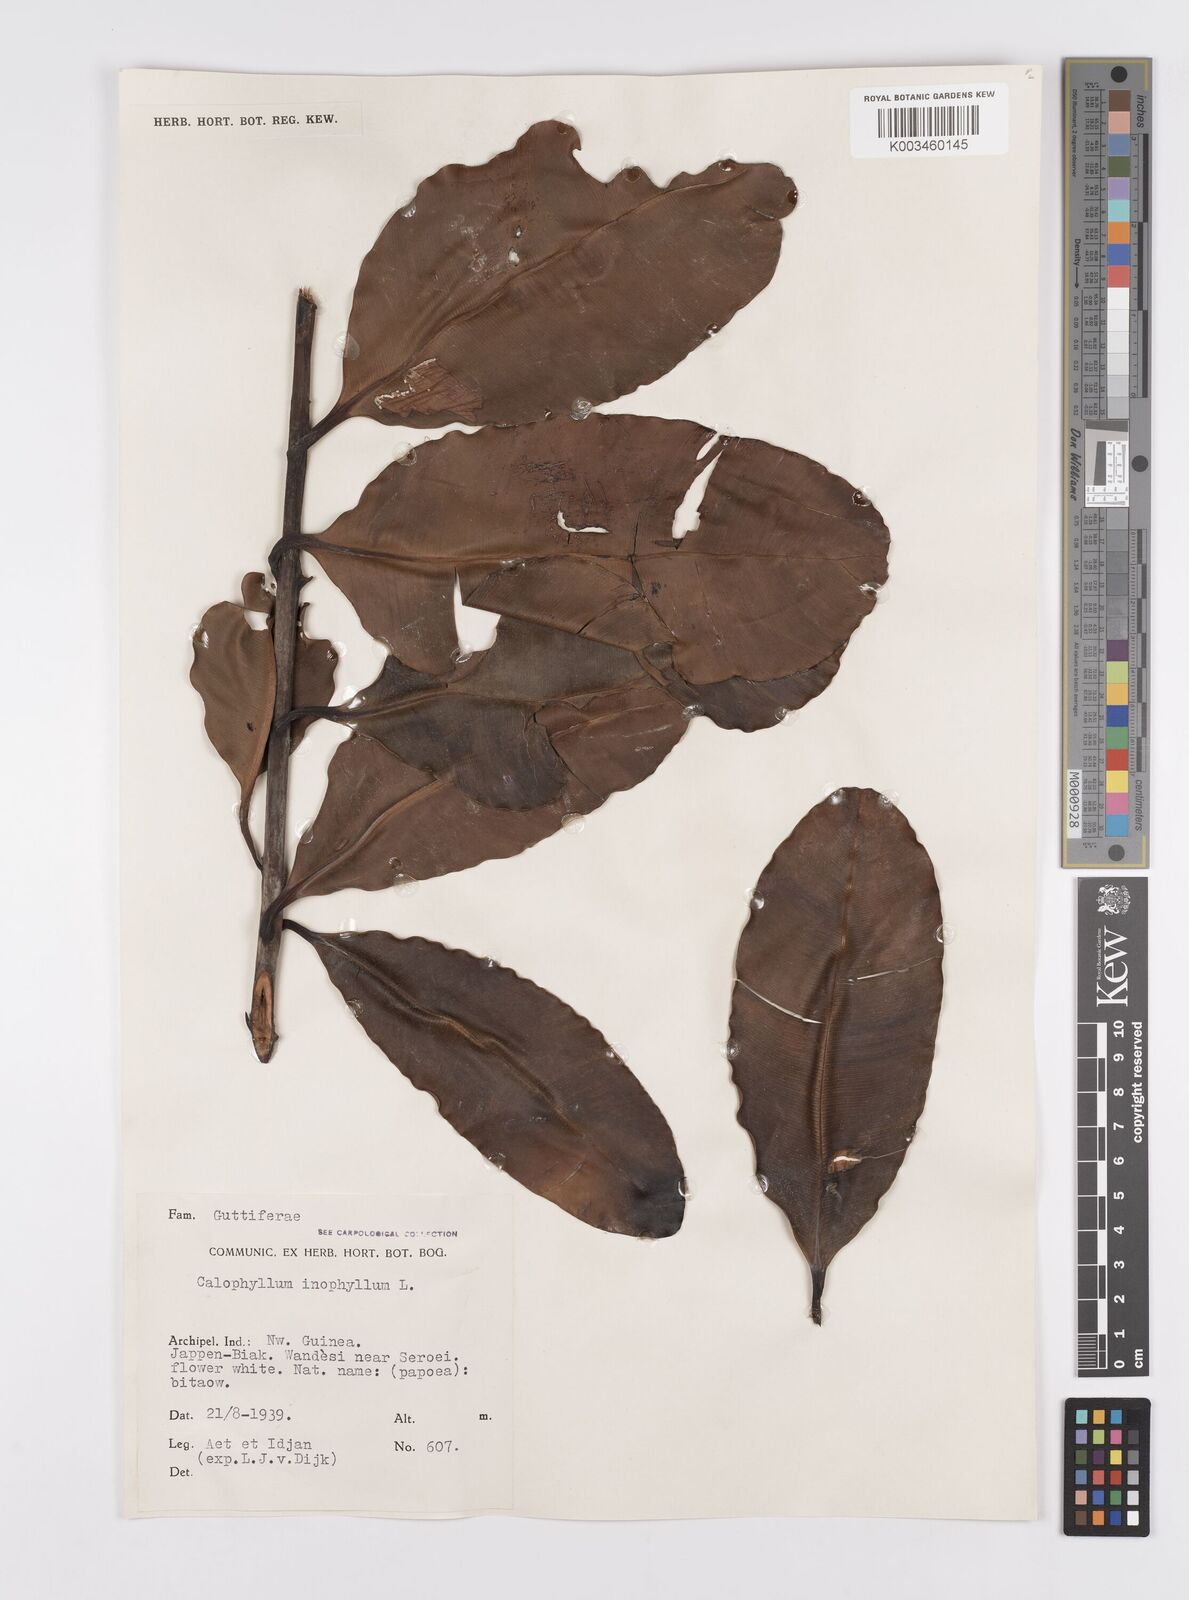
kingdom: Plantae
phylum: Tracheophyta
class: Magnoliopsida
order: Malpighiales
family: Calophyllaceae
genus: Calophyllum
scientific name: Calophyllum inophyllum
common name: Alexandrian laurel
